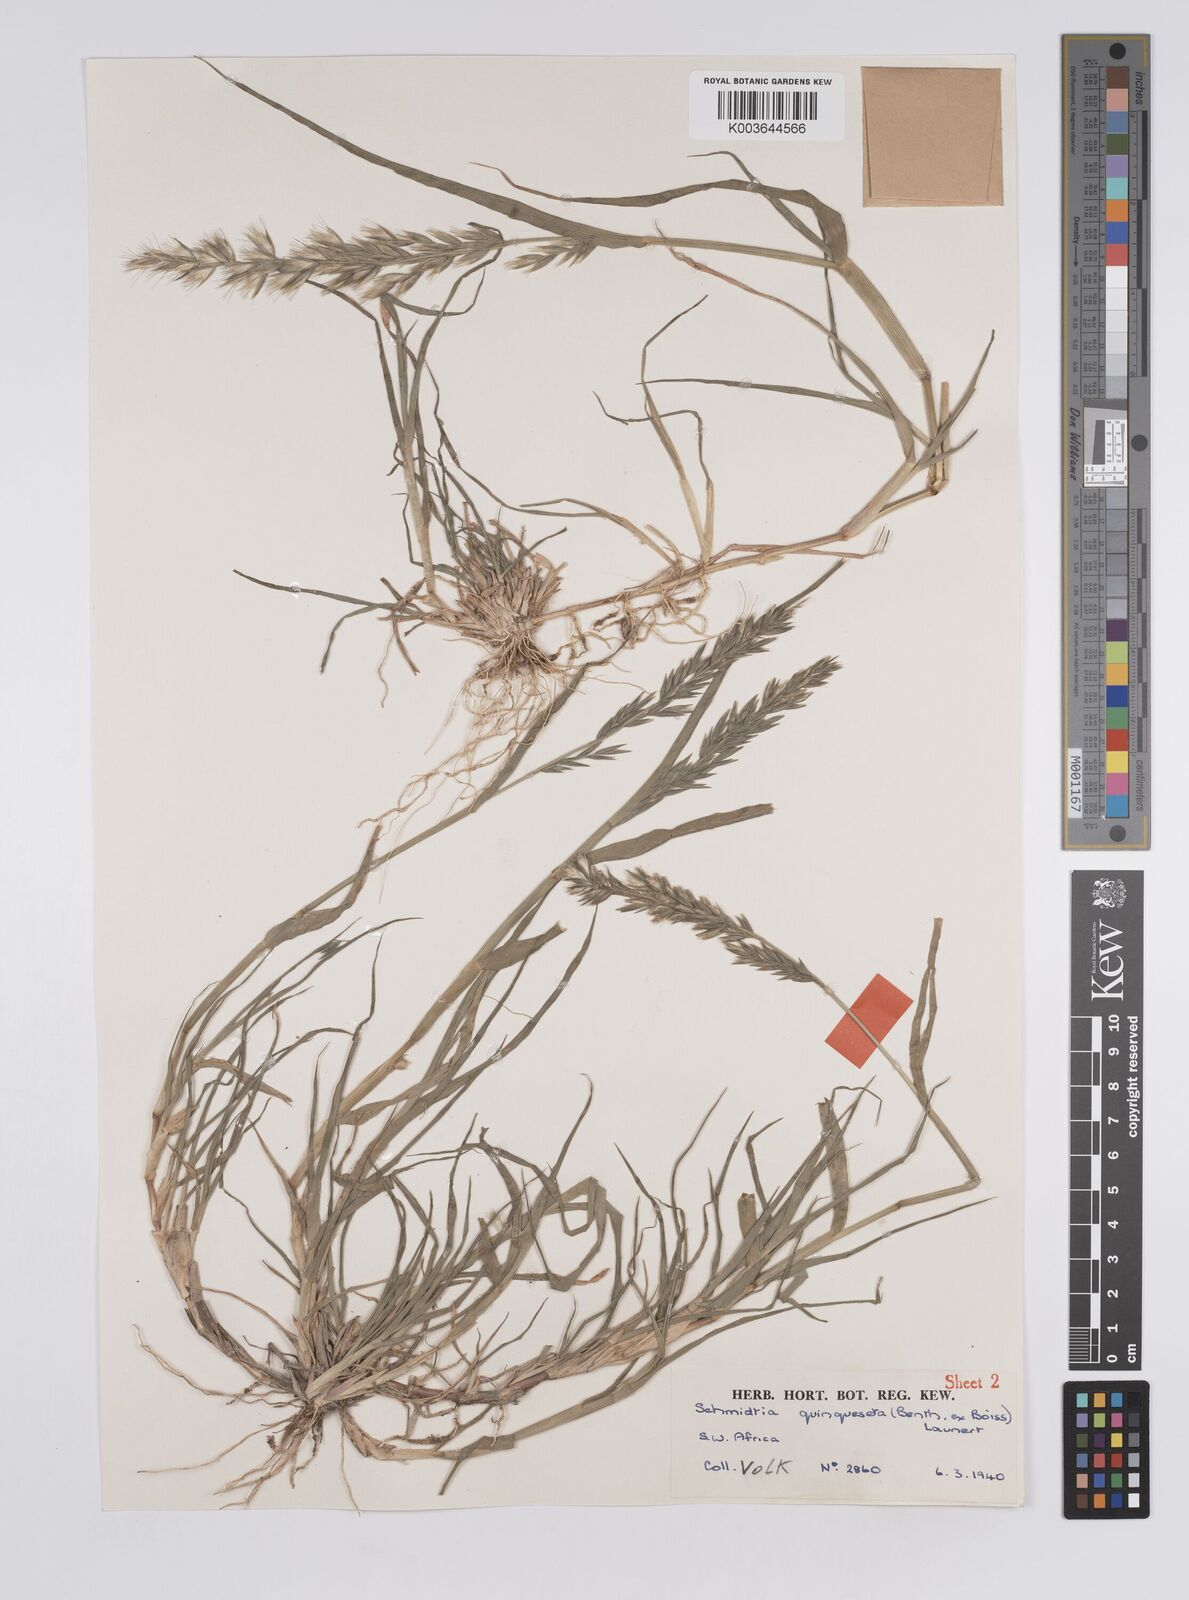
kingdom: Plantae
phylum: Tracheophyta
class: Liliopsida
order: Poales
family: Poaceae
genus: Schmidtia
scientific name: Schmidtia kalahariensis
